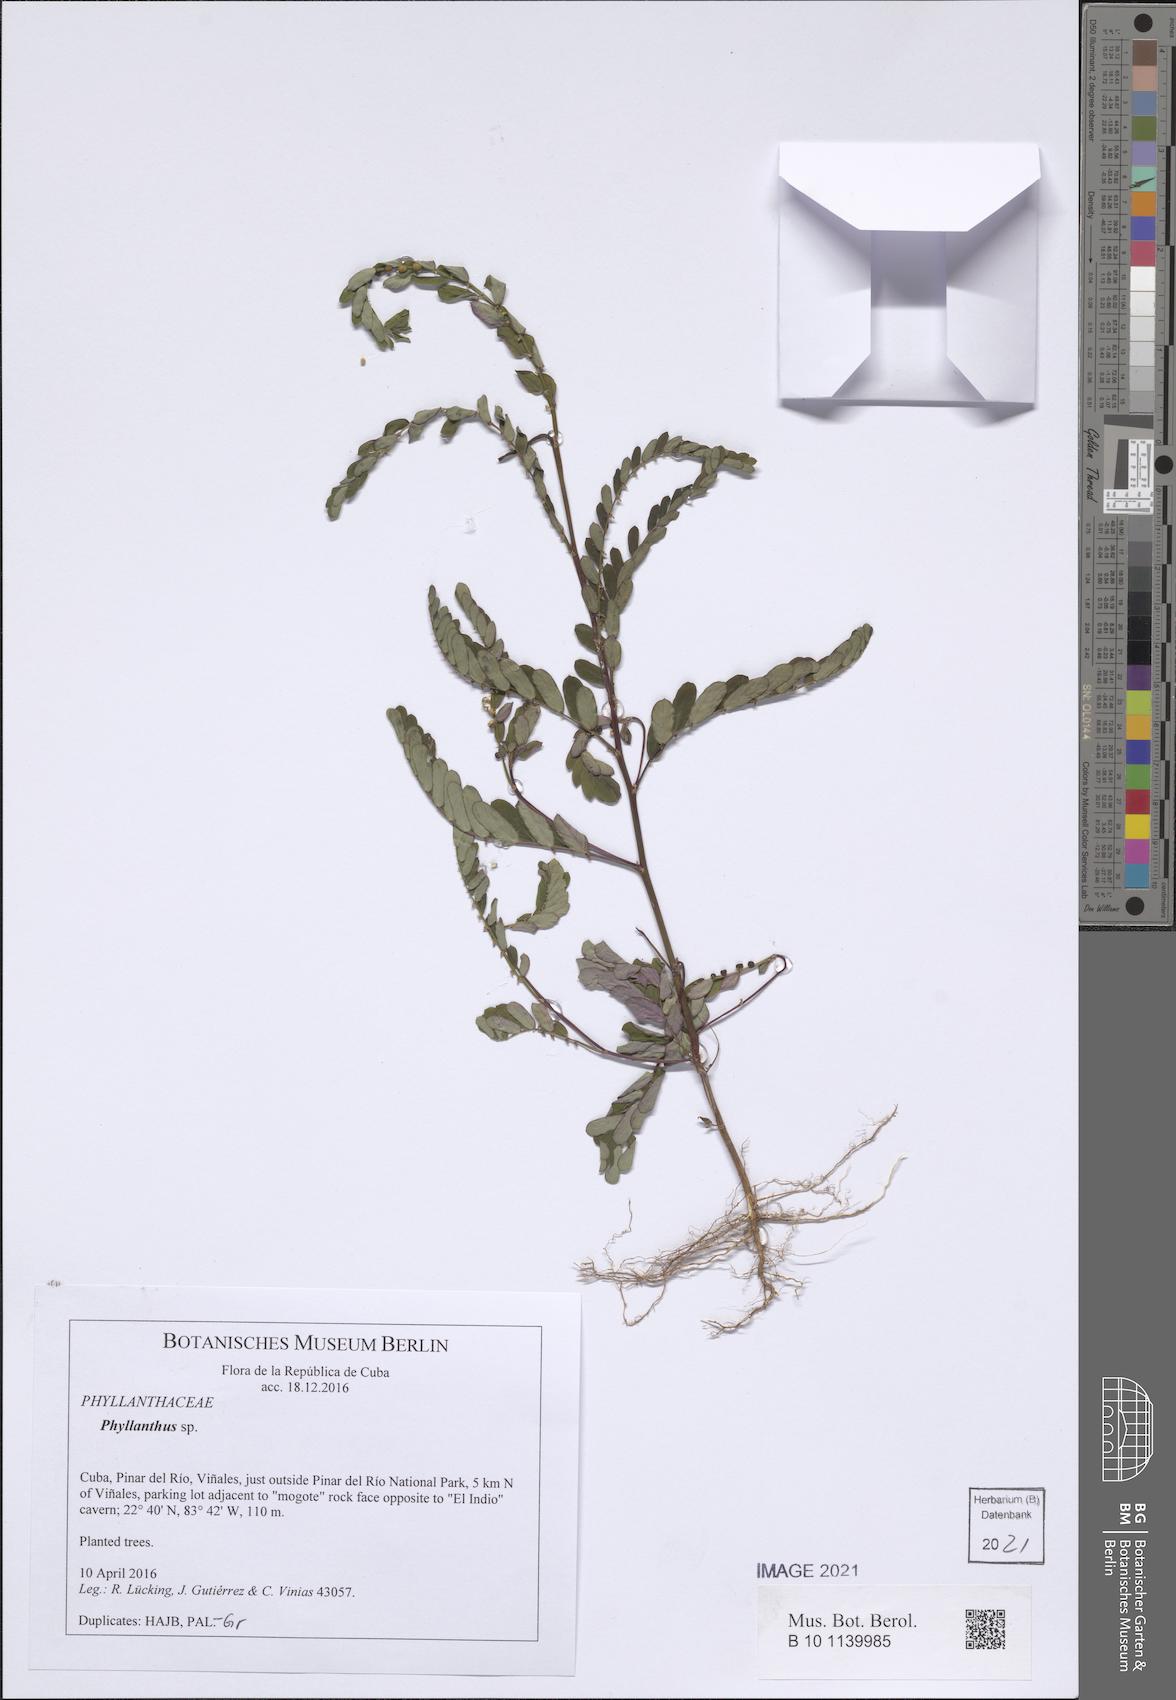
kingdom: Plantae
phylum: Tracheophyta
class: Magnoliopsida
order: Malpighiales
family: Phyllanthaceae
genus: Phyllanthus
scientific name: Phyllanthus
